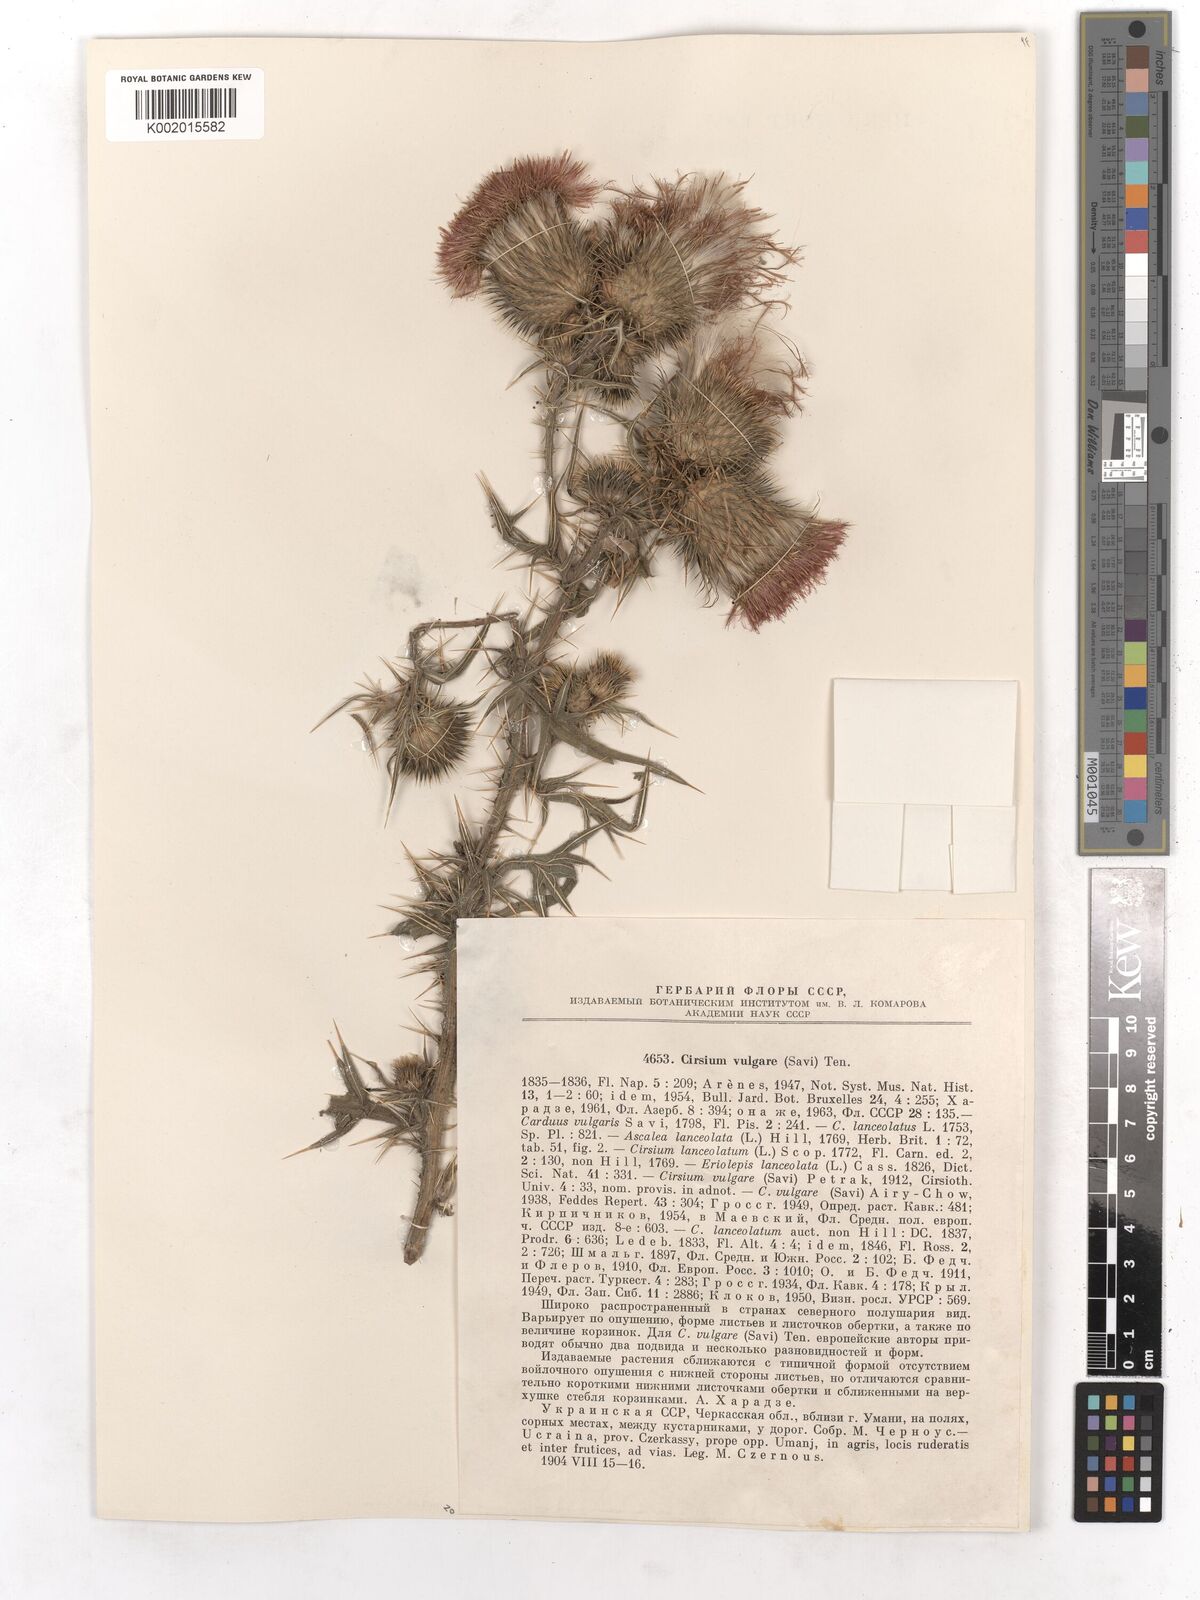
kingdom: Plantae
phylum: Tracheophyta
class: Magnoliopsida
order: Asterales
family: Asteraceae
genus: Cirsium
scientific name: Cirsium vulgare
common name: Bull thistle
